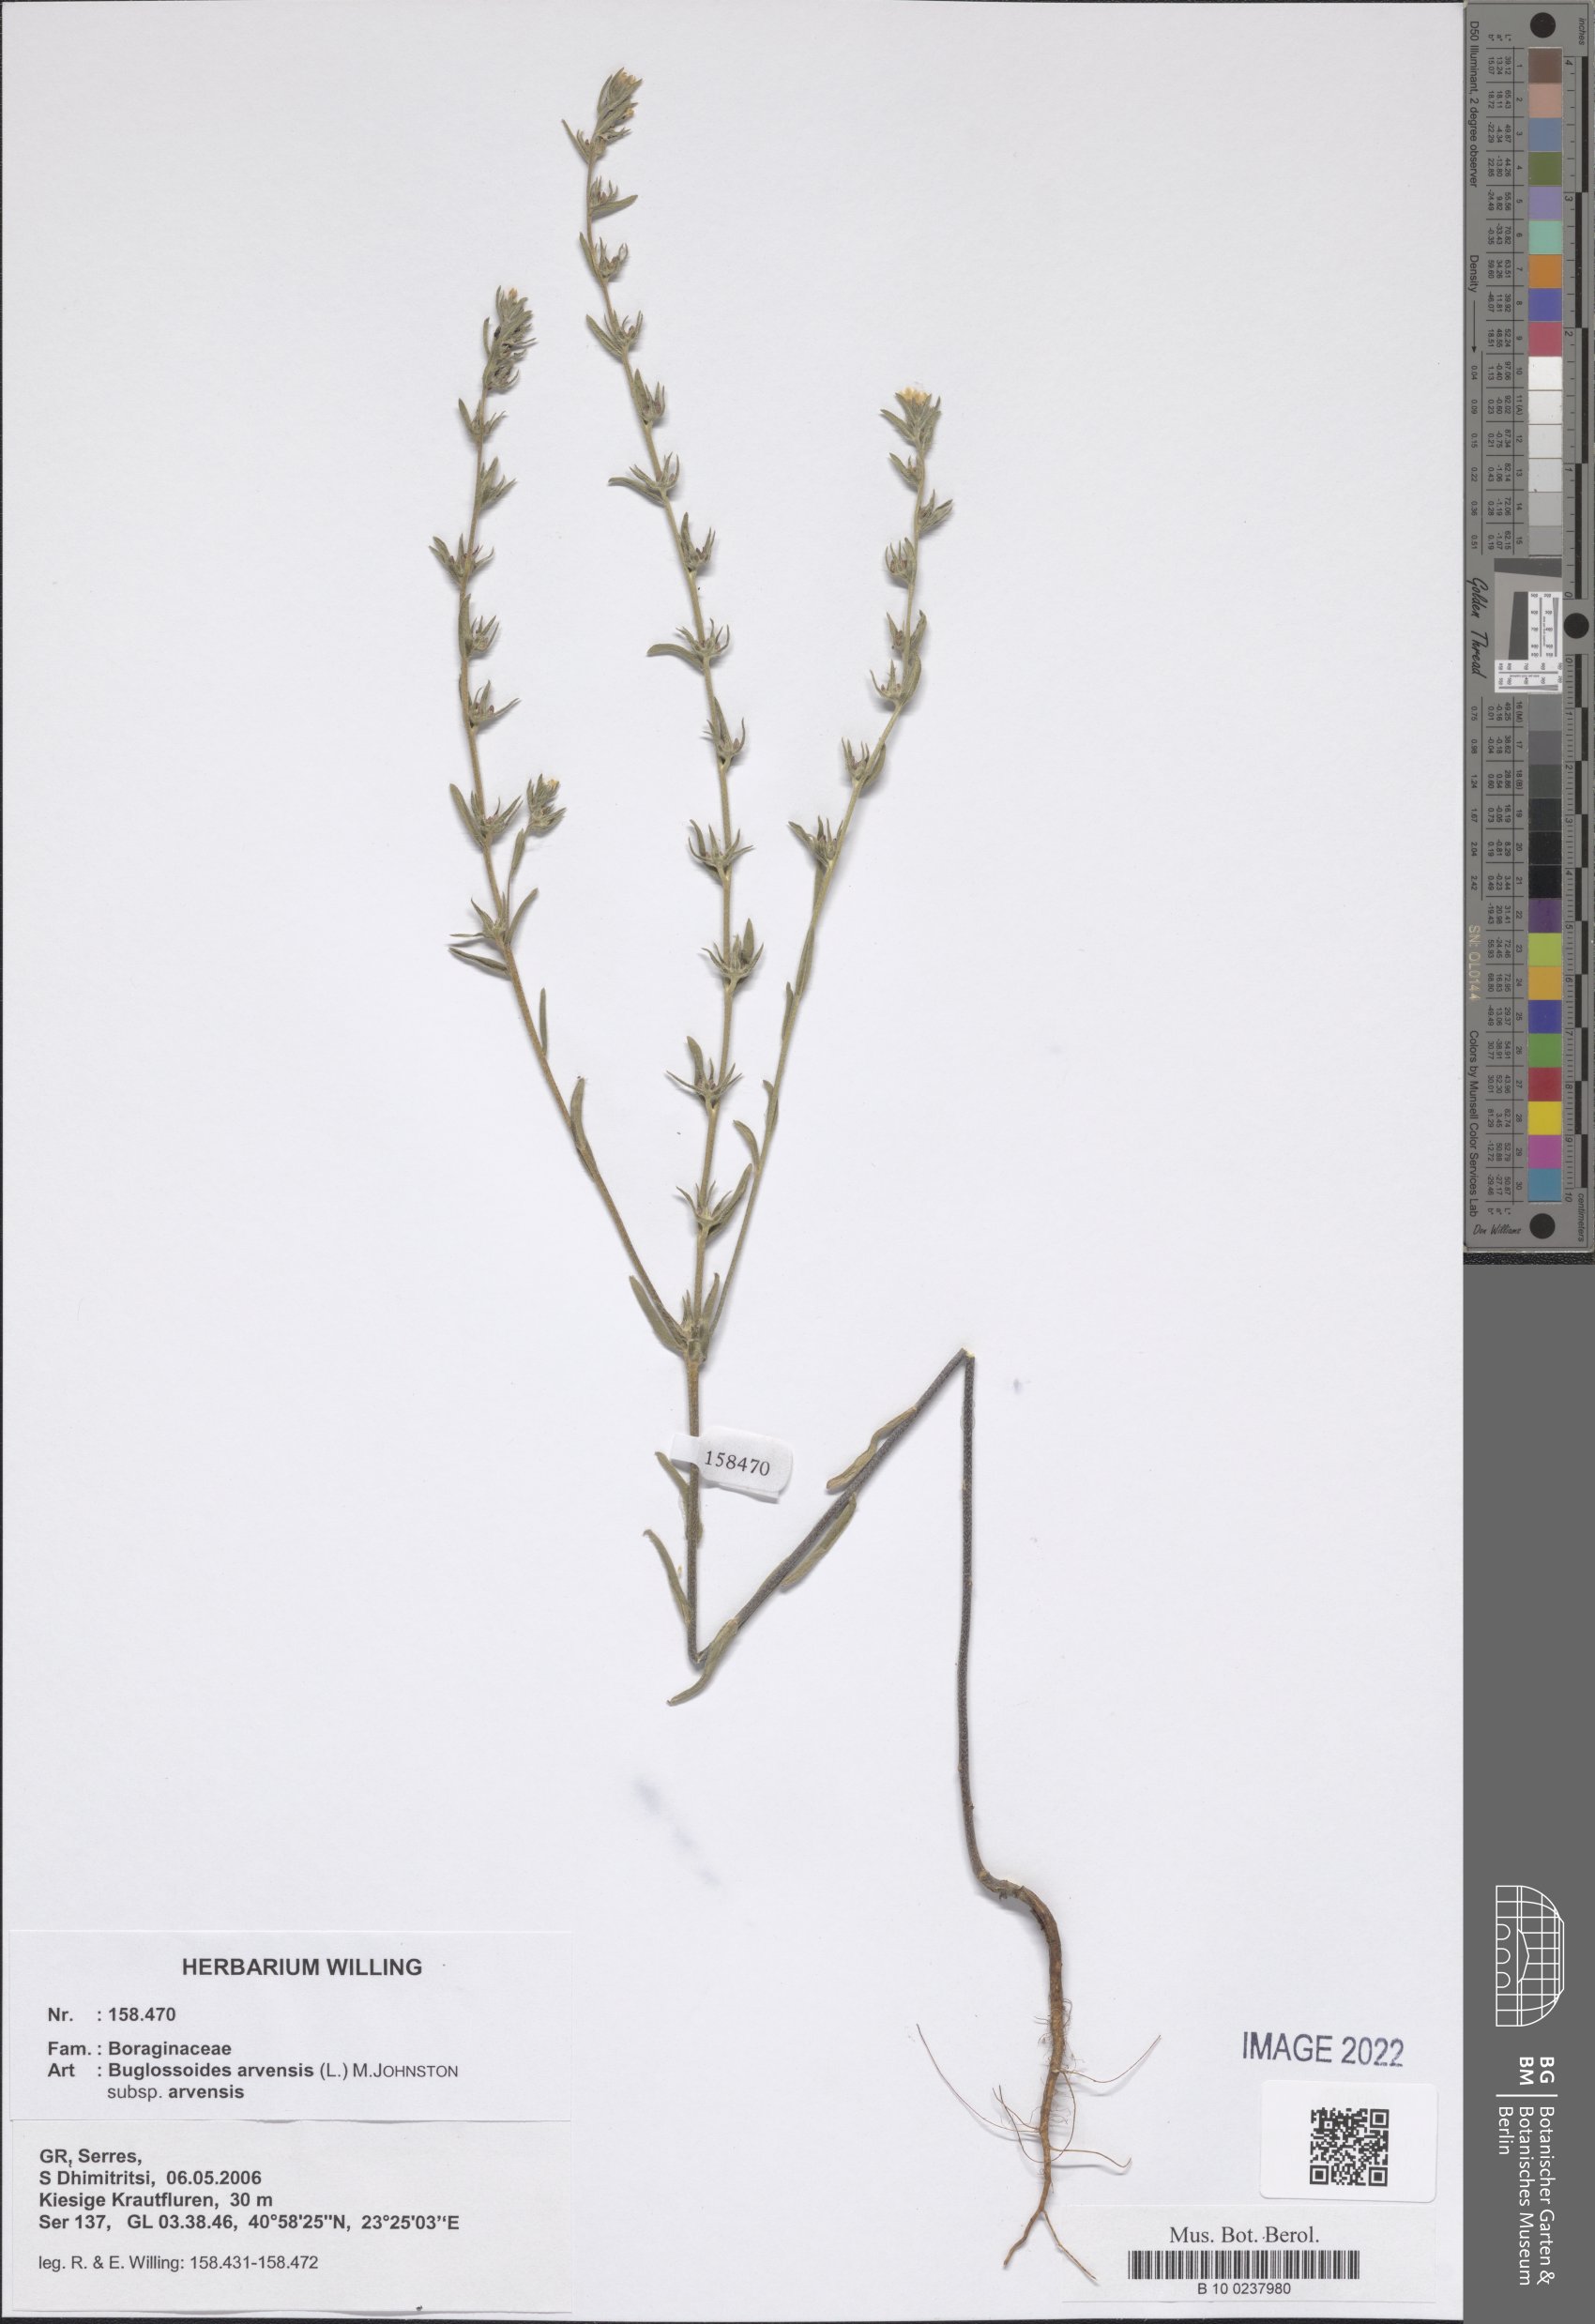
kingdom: Plantae
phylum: Tracheophyta
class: Magnoliopsida
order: Boraginales
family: Boraginaceae
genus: Buglossoides
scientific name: Buglossoides arvensis
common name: Corn gromwell
